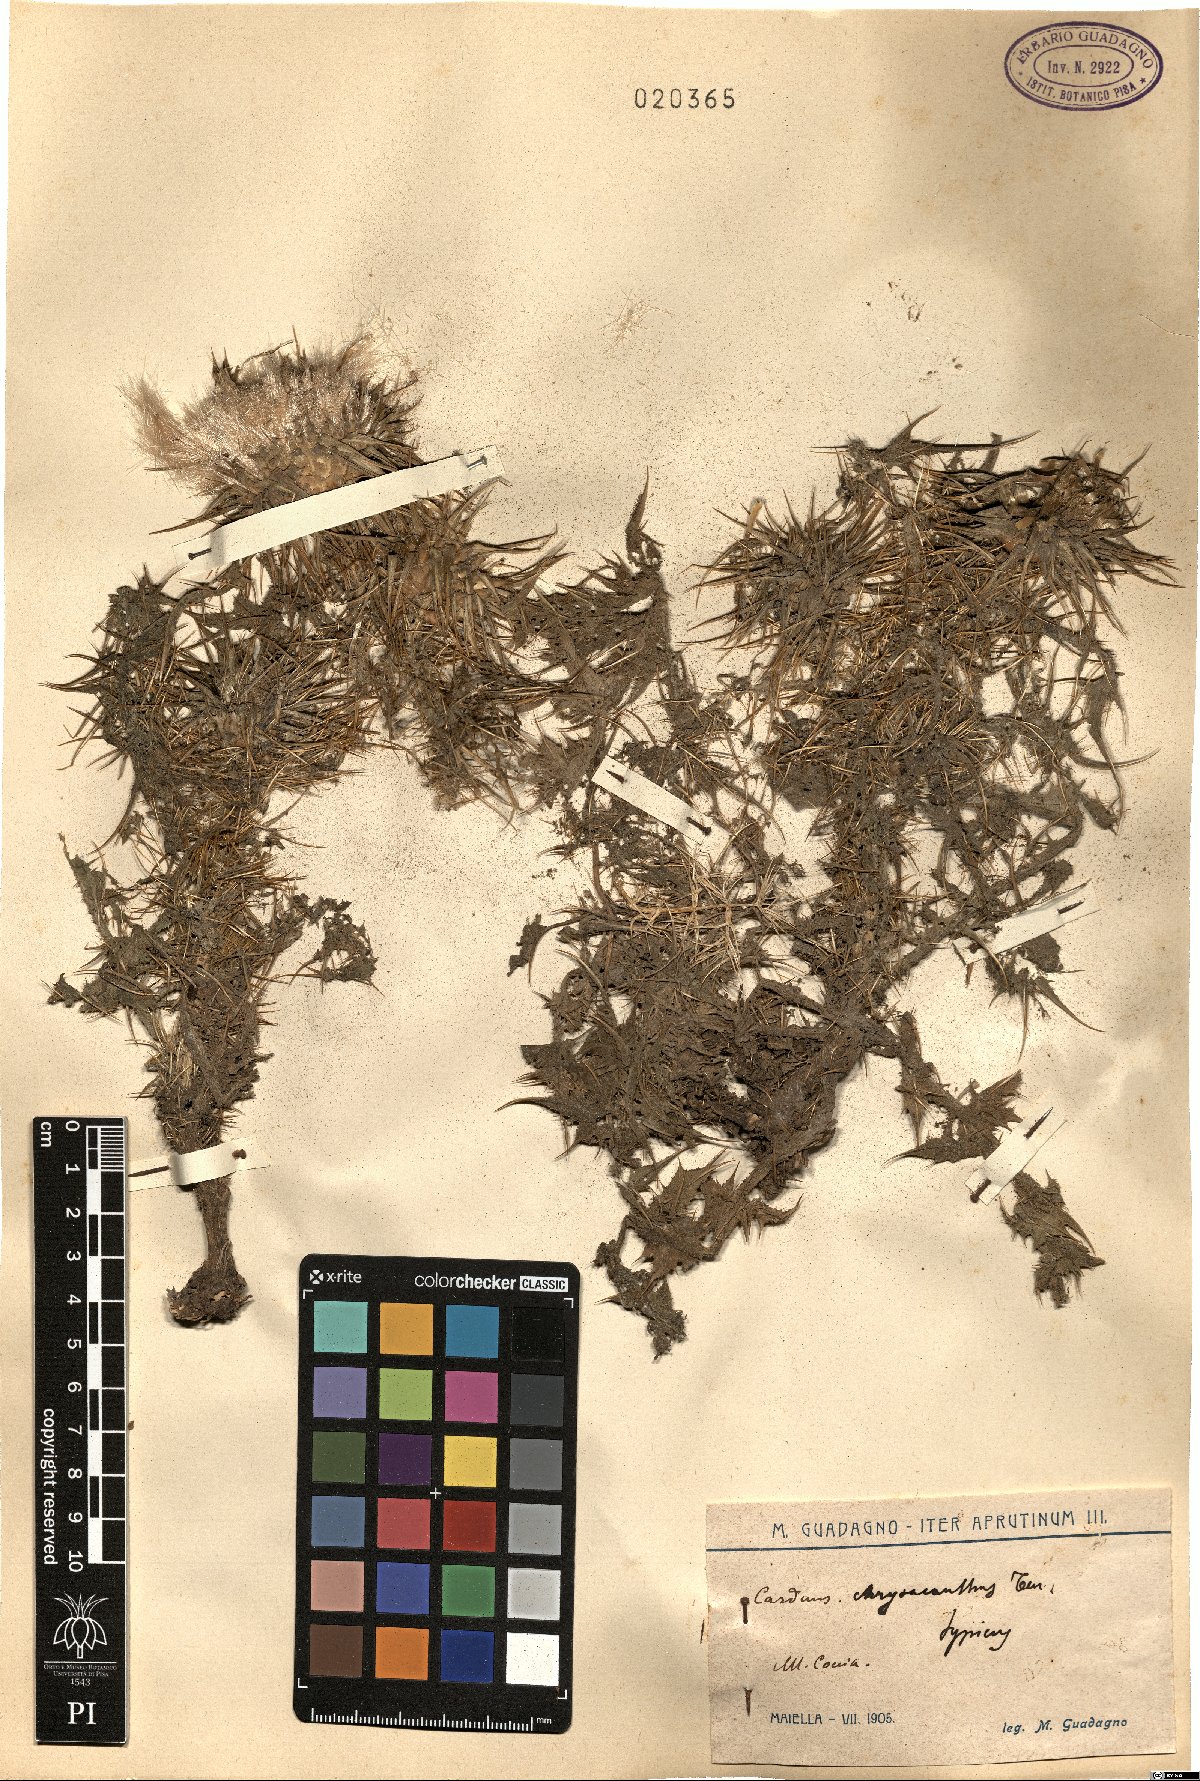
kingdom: Plantae
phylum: Tracheophyta
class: Magnoliopsida
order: Asterales
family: Asteraceae
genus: Carduus
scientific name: Carduus chrysacanthus
